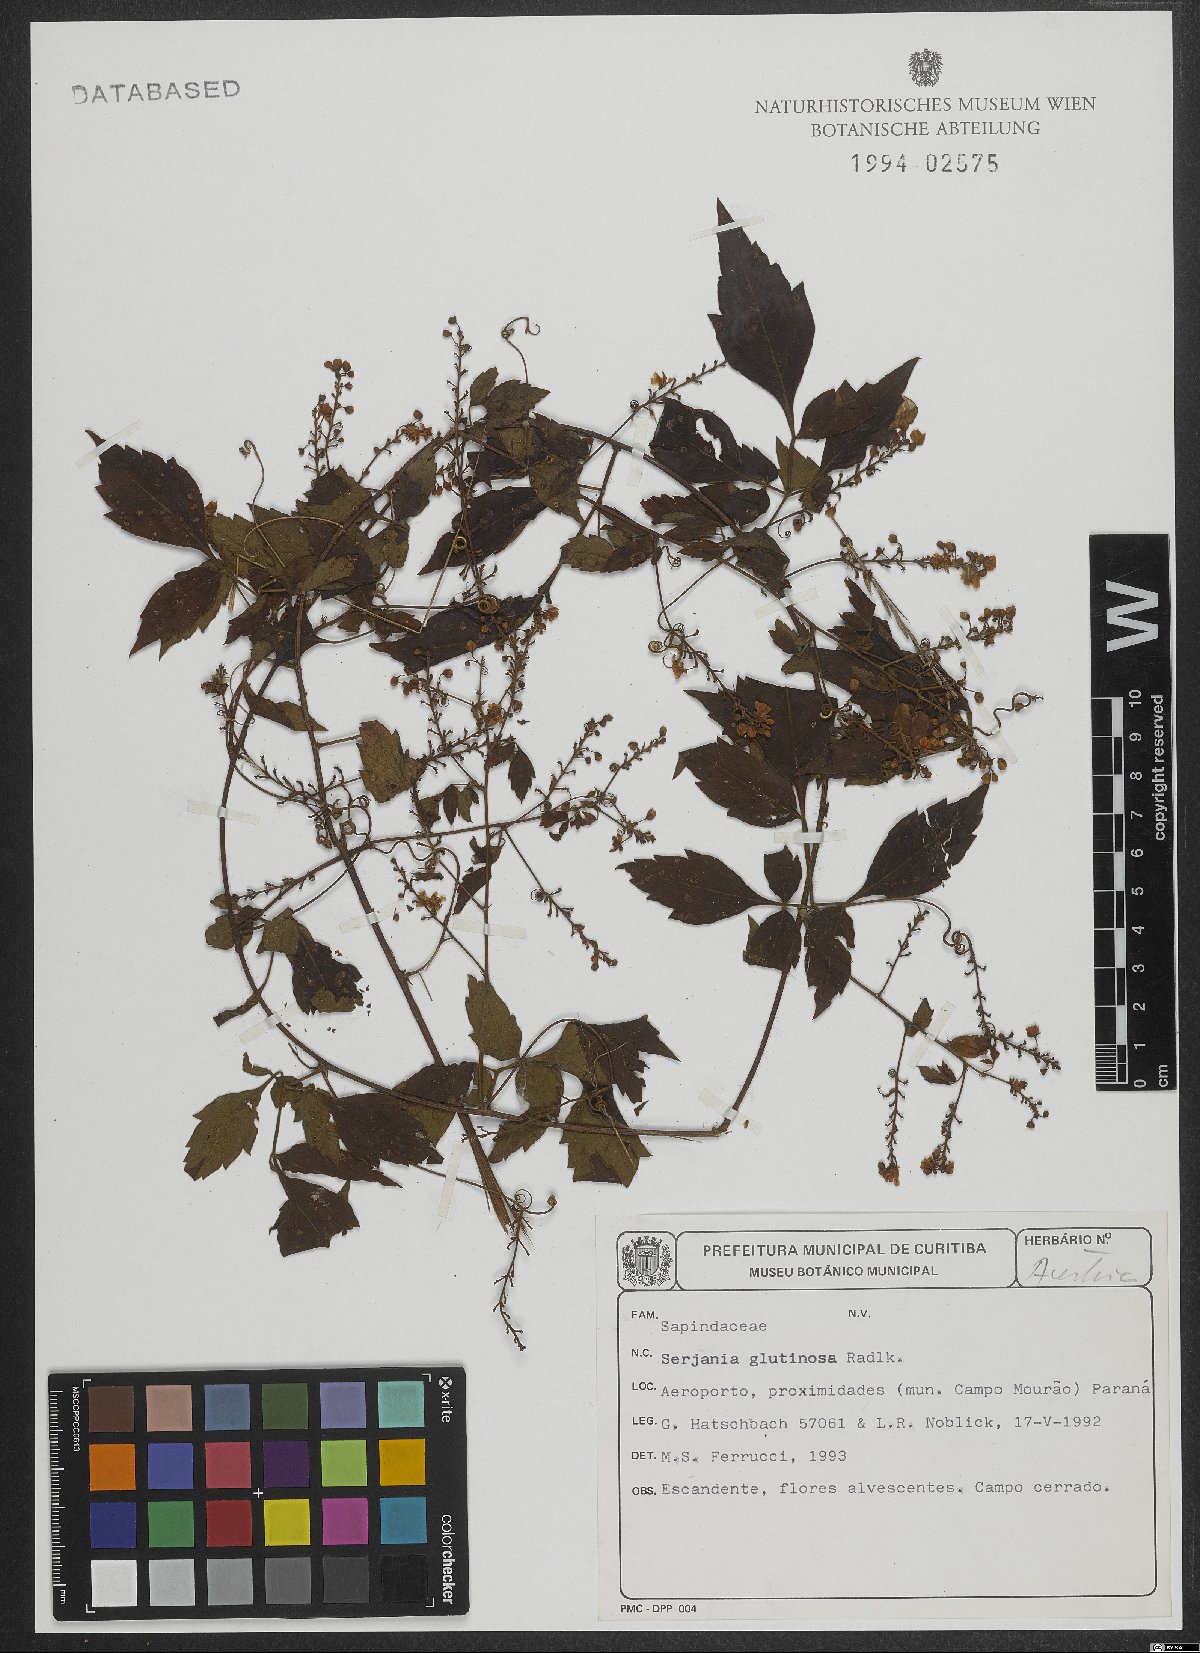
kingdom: Plantae
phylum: Tracheophyta
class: Magnoliopsida
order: Sapindales
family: Sapindaceae
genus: Serjania
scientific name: Serjania glutinosa
